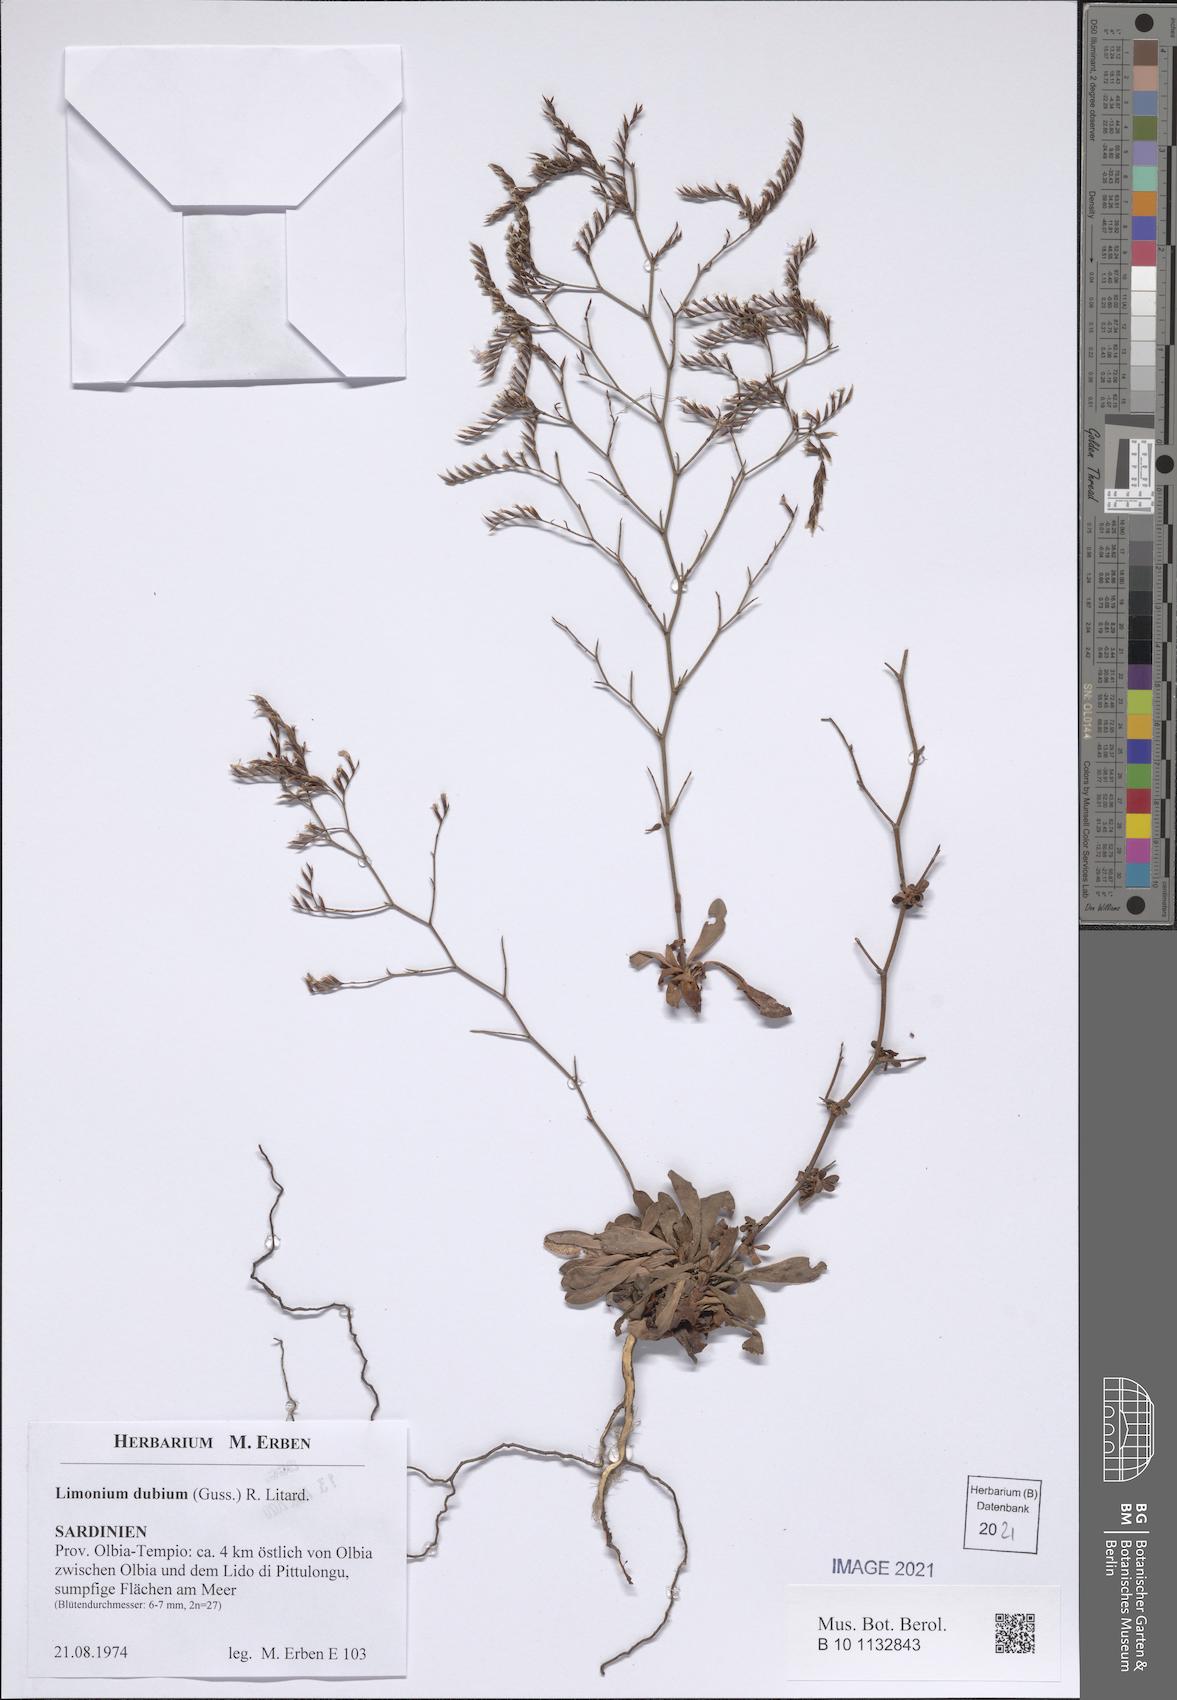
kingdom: Plantae
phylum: Tracheophyta
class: Magnoliopsida
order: Caryophyllales
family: Plumbaginaceae
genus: Limonium
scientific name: Limonium dubium
